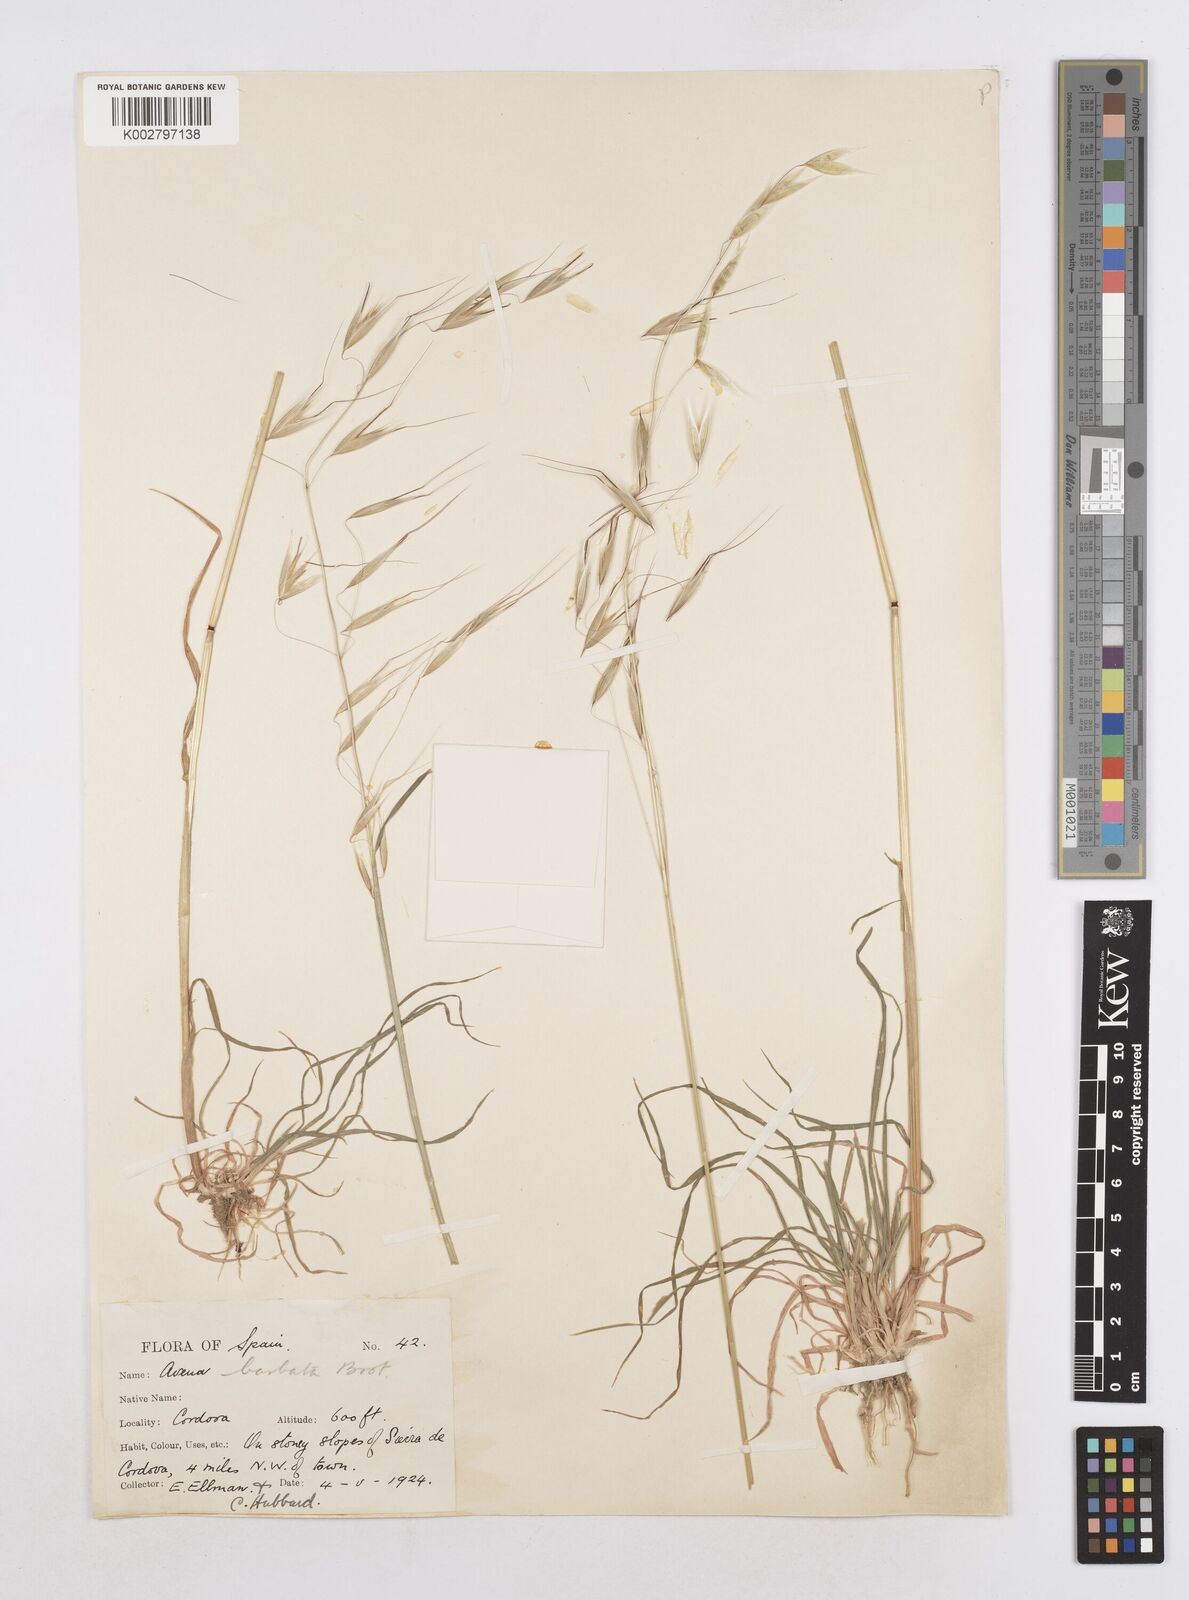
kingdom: Plantae
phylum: Tracheophyta
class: Liliopsida
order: Poales
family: Poaceae
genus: Avena
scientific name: Avena
